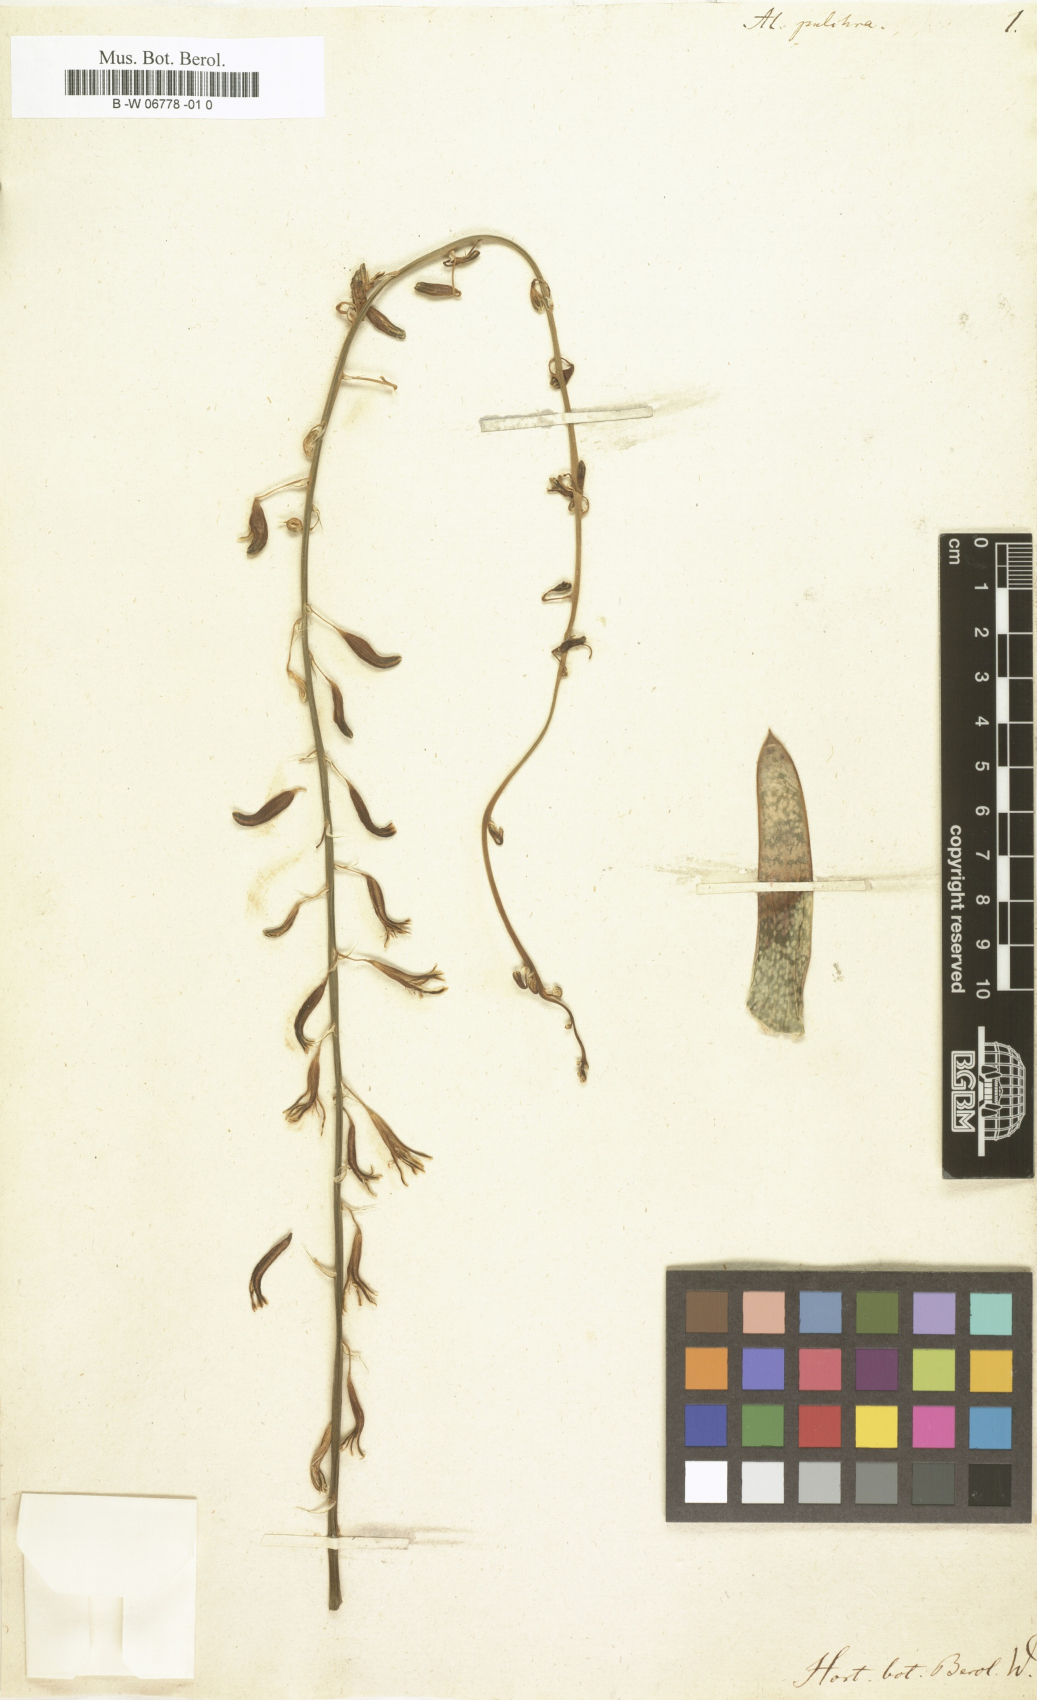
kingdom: Plantae
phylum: Tracheophyta
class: Liliopsida
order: Asparagales
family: Asphodelaceae
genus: Gasteria
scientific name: Gasteria pulchra
